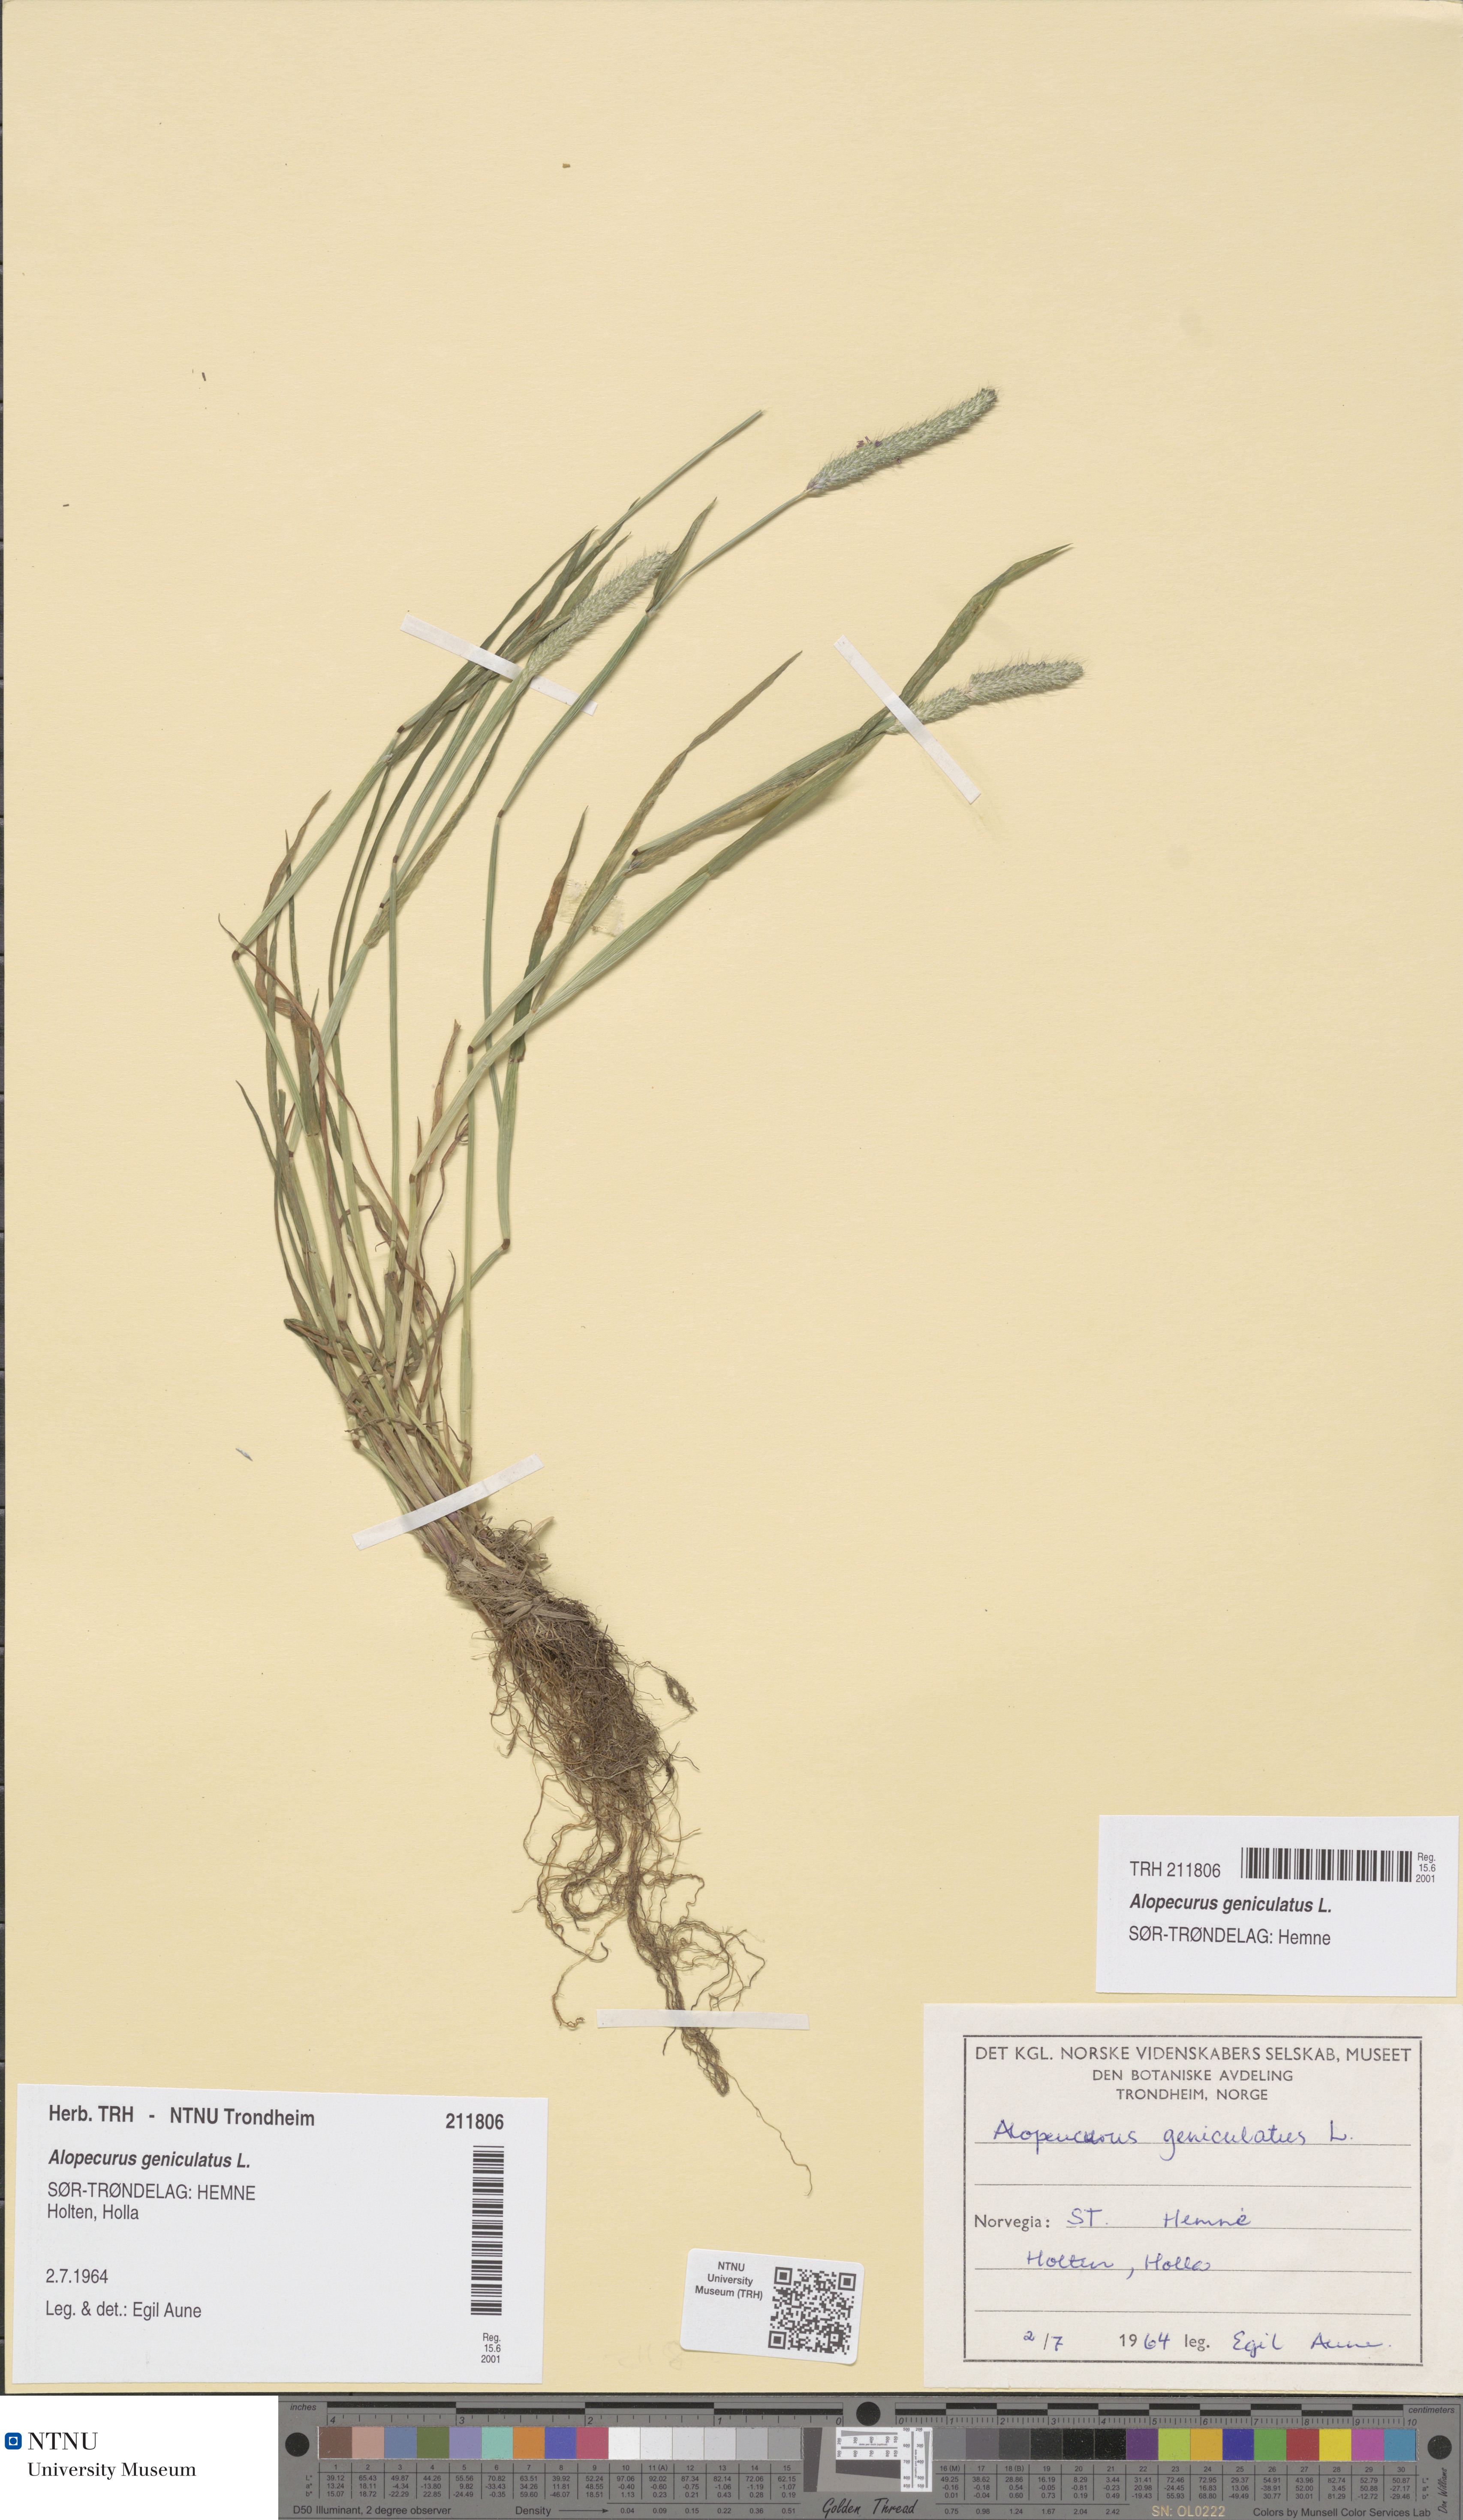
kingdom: Plantae
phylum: Tracheophyta
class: Liliopsida
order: Poales
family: Poaceae
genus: Alopecurus
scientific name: Alopecurus geniculatus
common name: Water foxtail
